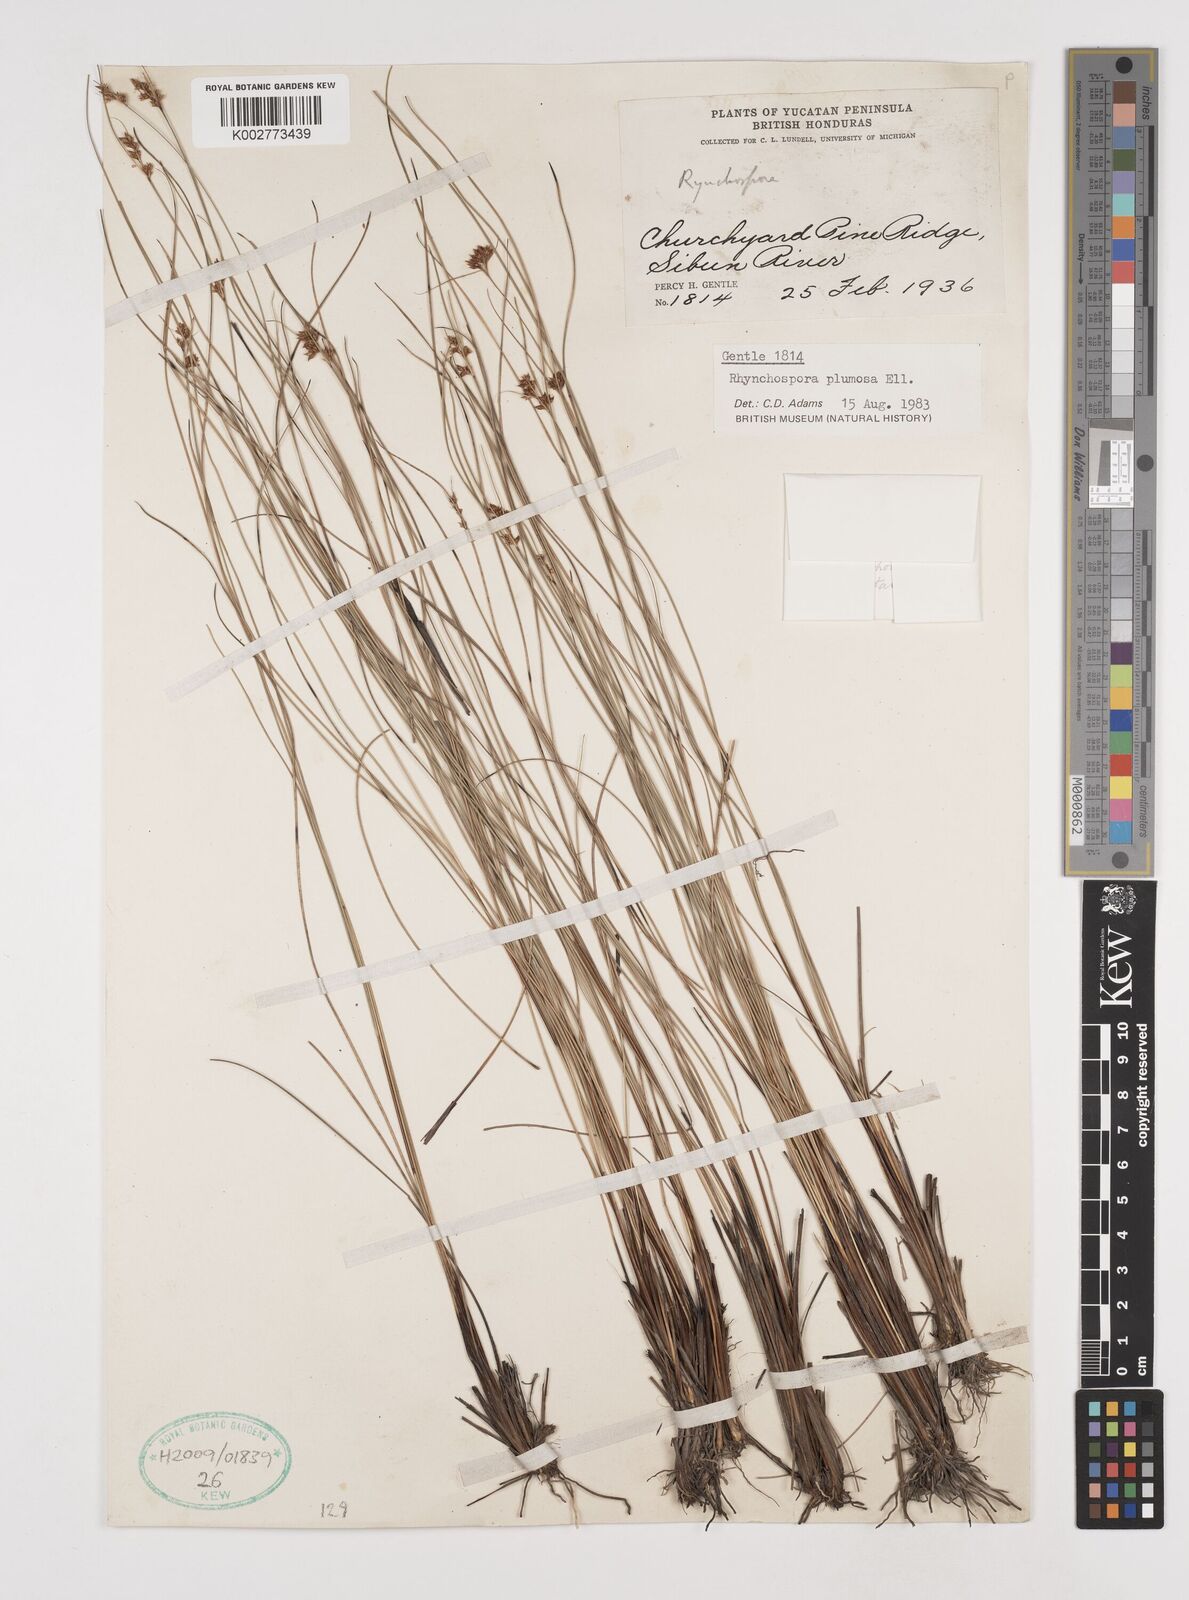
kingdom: Plantae
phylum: Tracheophyta
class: Liliopsida
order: Poales
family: Cyperaceae
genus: Rhynchospora
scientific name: Rhynchospora plumosa
